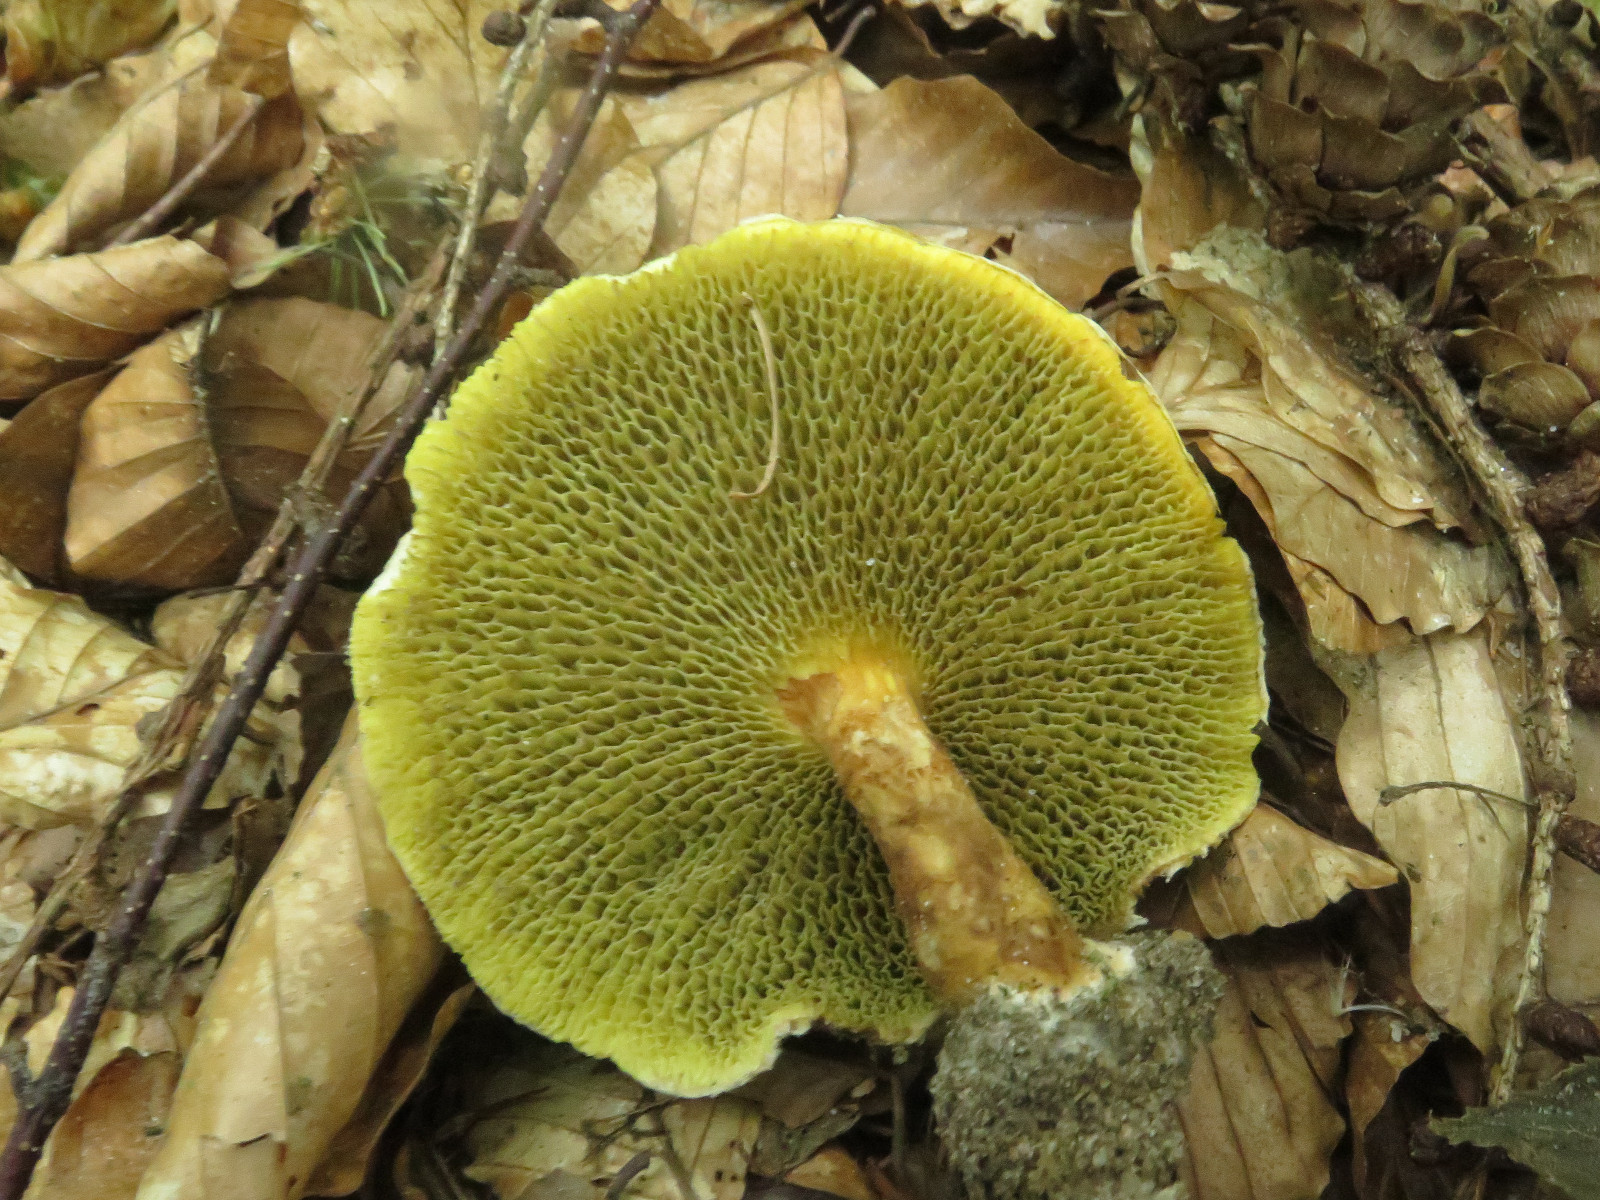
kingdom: Fungi
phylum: Basidiomycota
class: Agaricomycetes
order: Boletales
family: Suillaceae
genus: Suillus
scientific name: Suillus cavipes
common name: hulstokket slimrørhat
